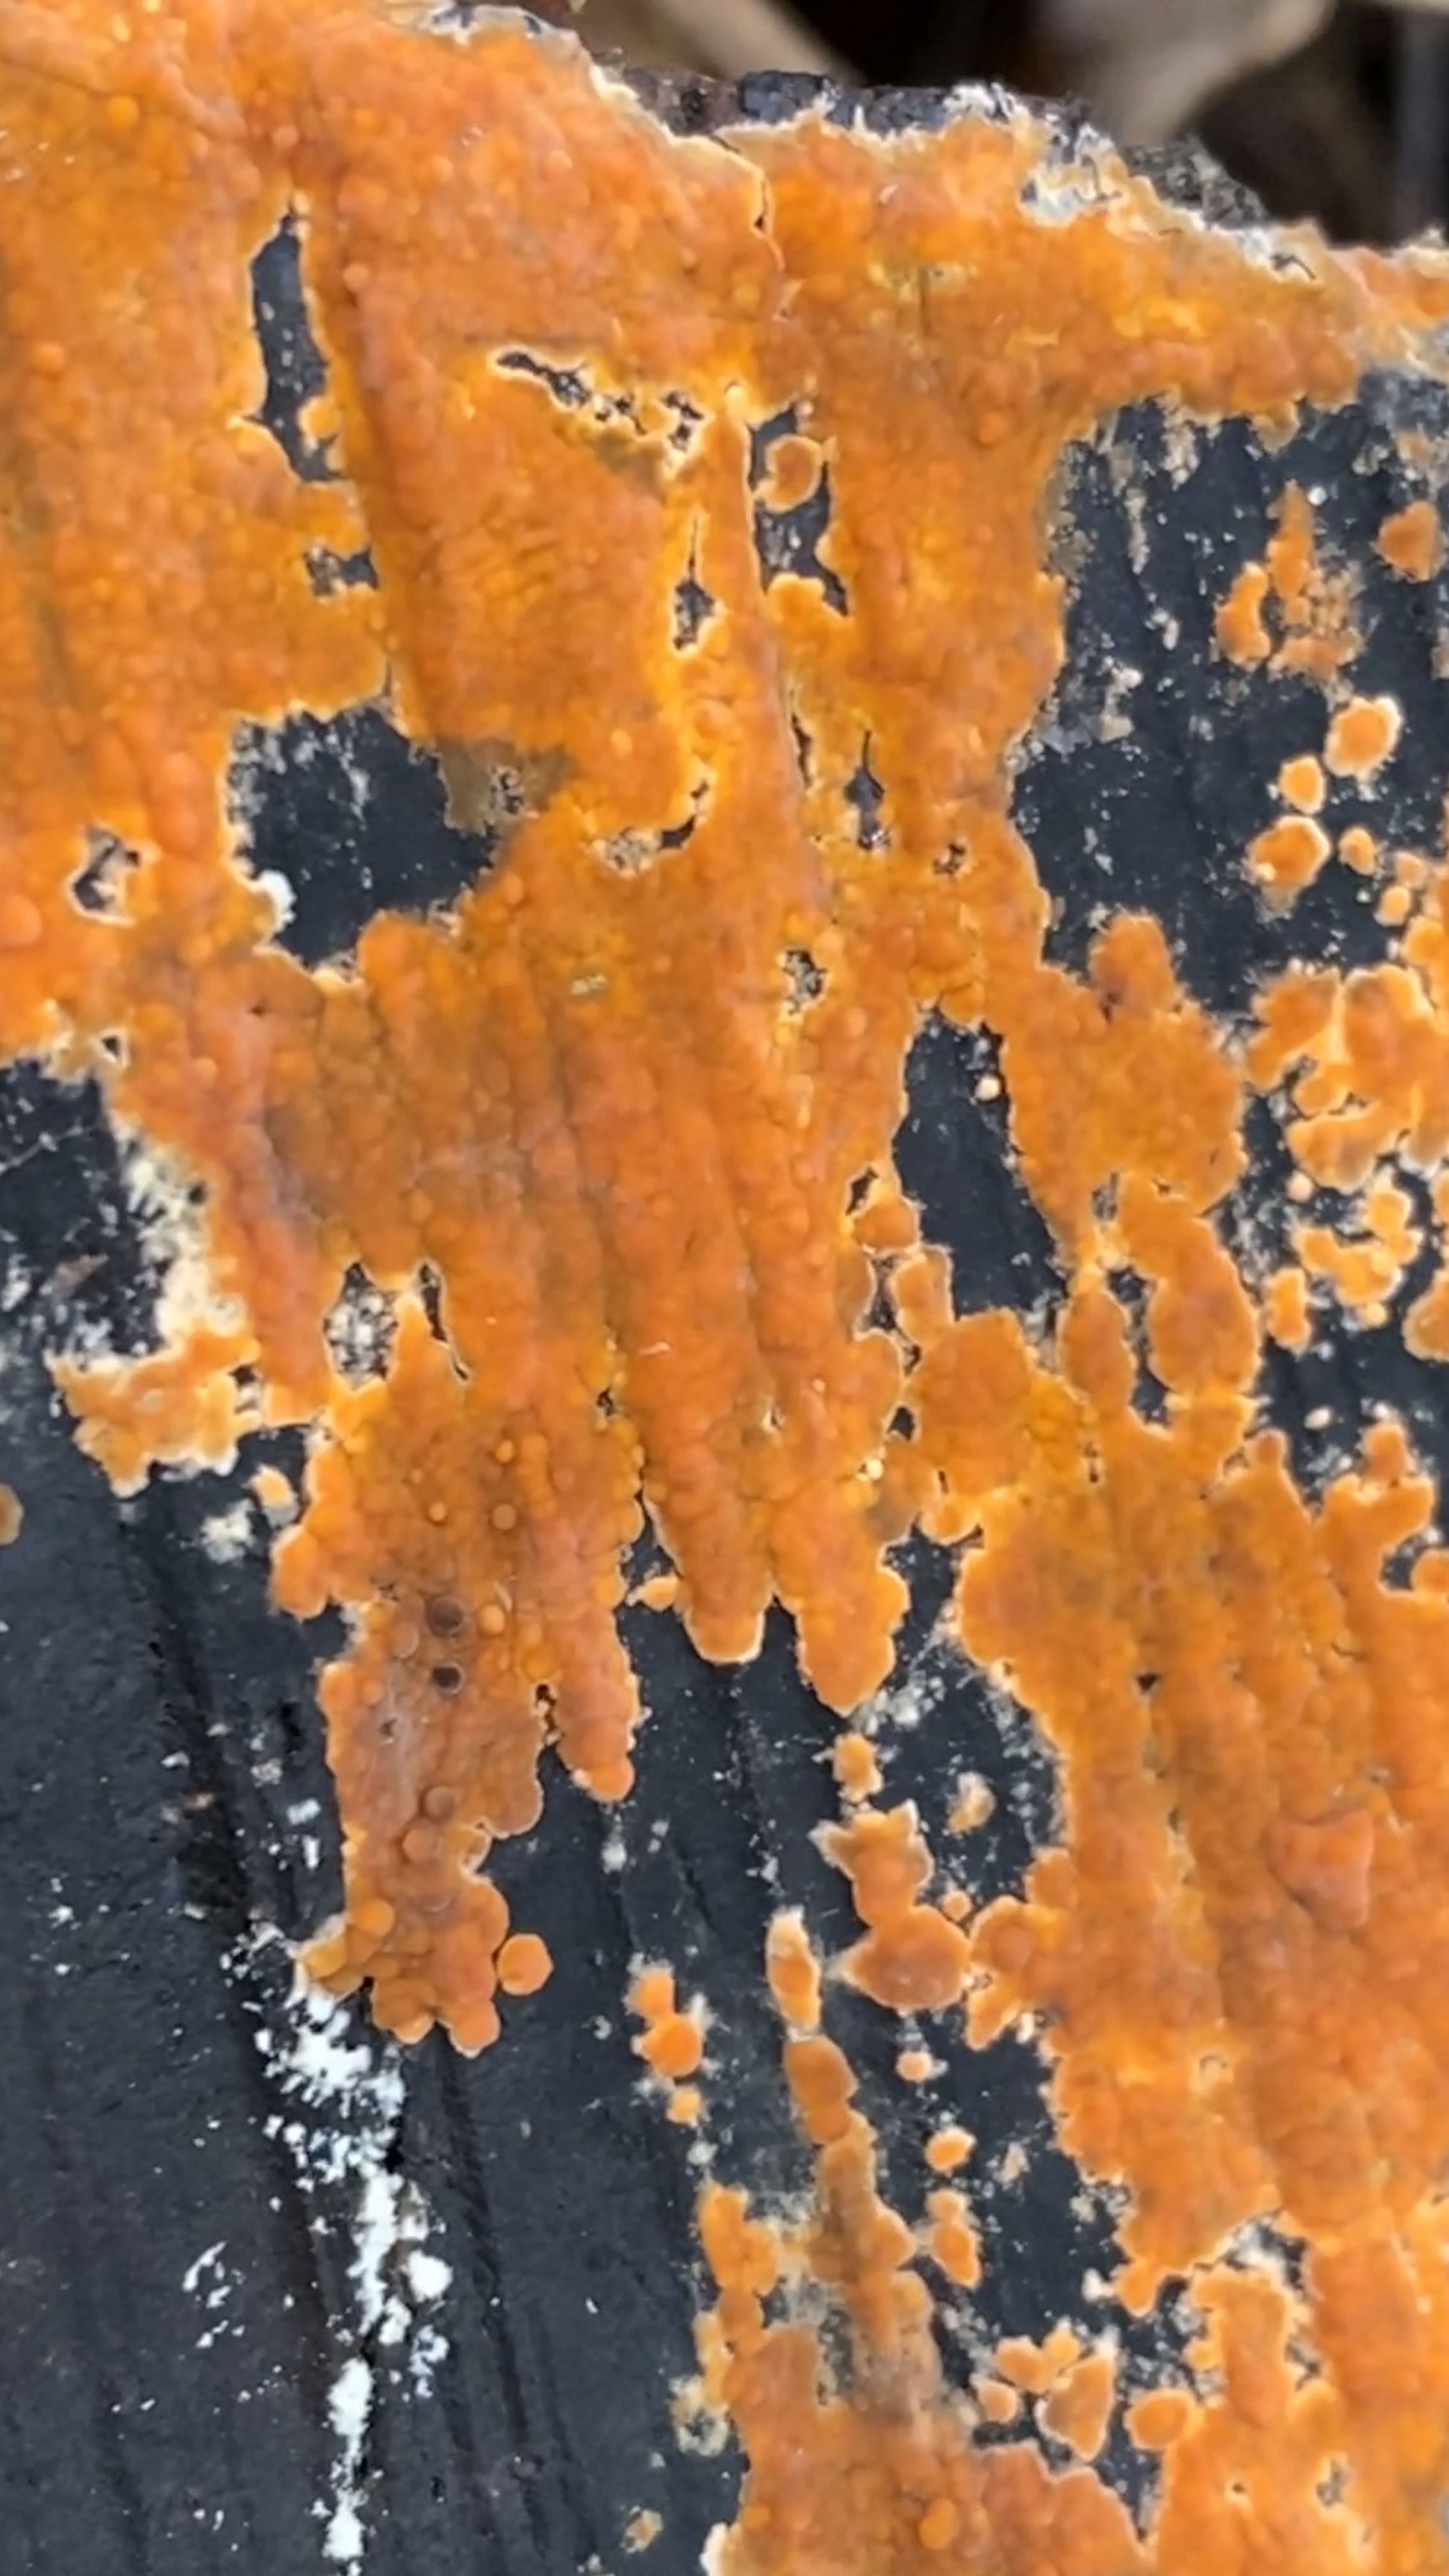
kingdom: Fungi
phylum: Basidiomycota
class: Agaricomycetes
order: Russulales
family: Peniophoraceae
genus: Peniophora
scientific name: Peniophora incarnata
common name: laksefarvet voksskind
